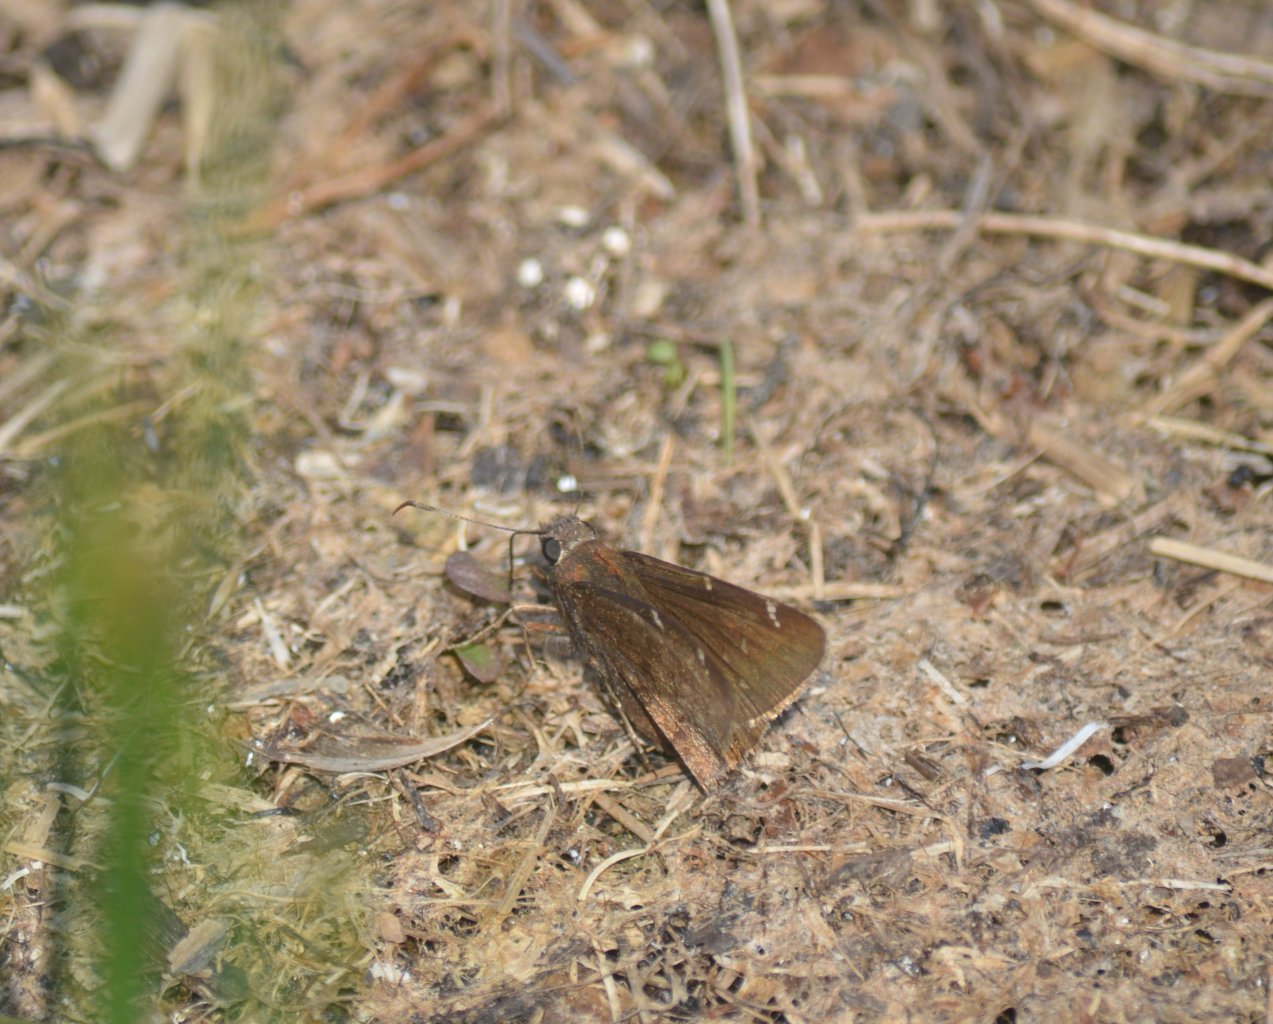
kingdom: Animalia
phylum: Arthropoda
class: Insecta
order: Lepidoptera
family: Hesperiidae
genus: Autochton
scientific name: Autochton
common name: Northern Cloudywing
